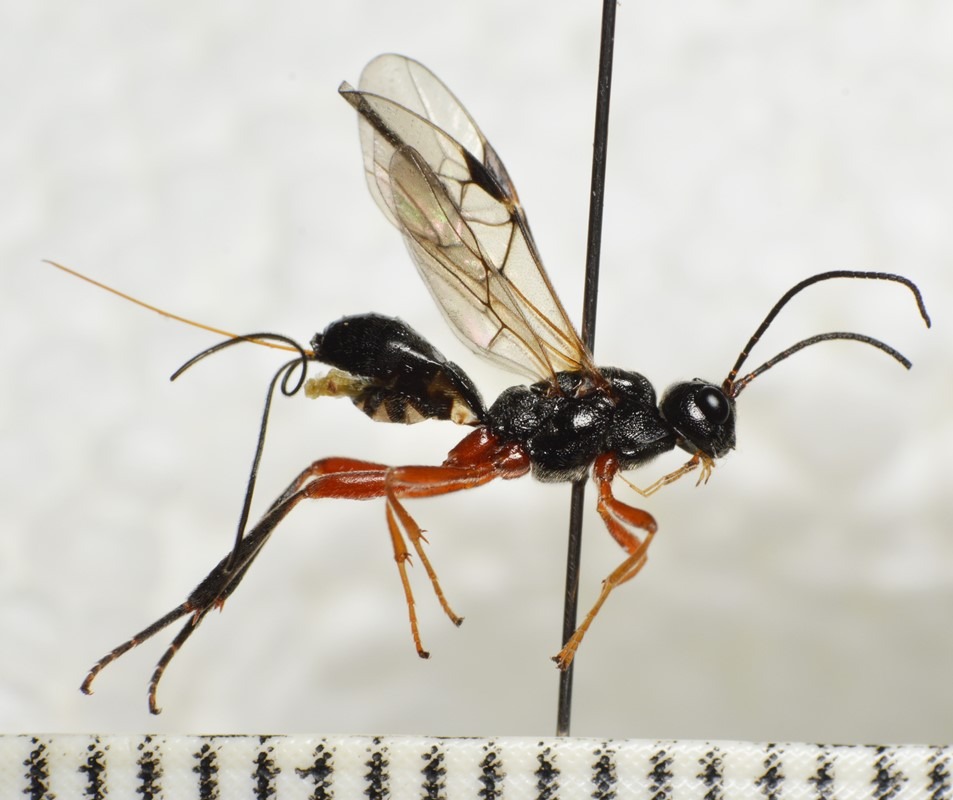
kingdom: Animalia
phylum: Arthropoda
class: Insecta
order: Hymenoptera
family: Braconidae
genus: Aspigonus
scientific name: Aspigonus flavicornis
